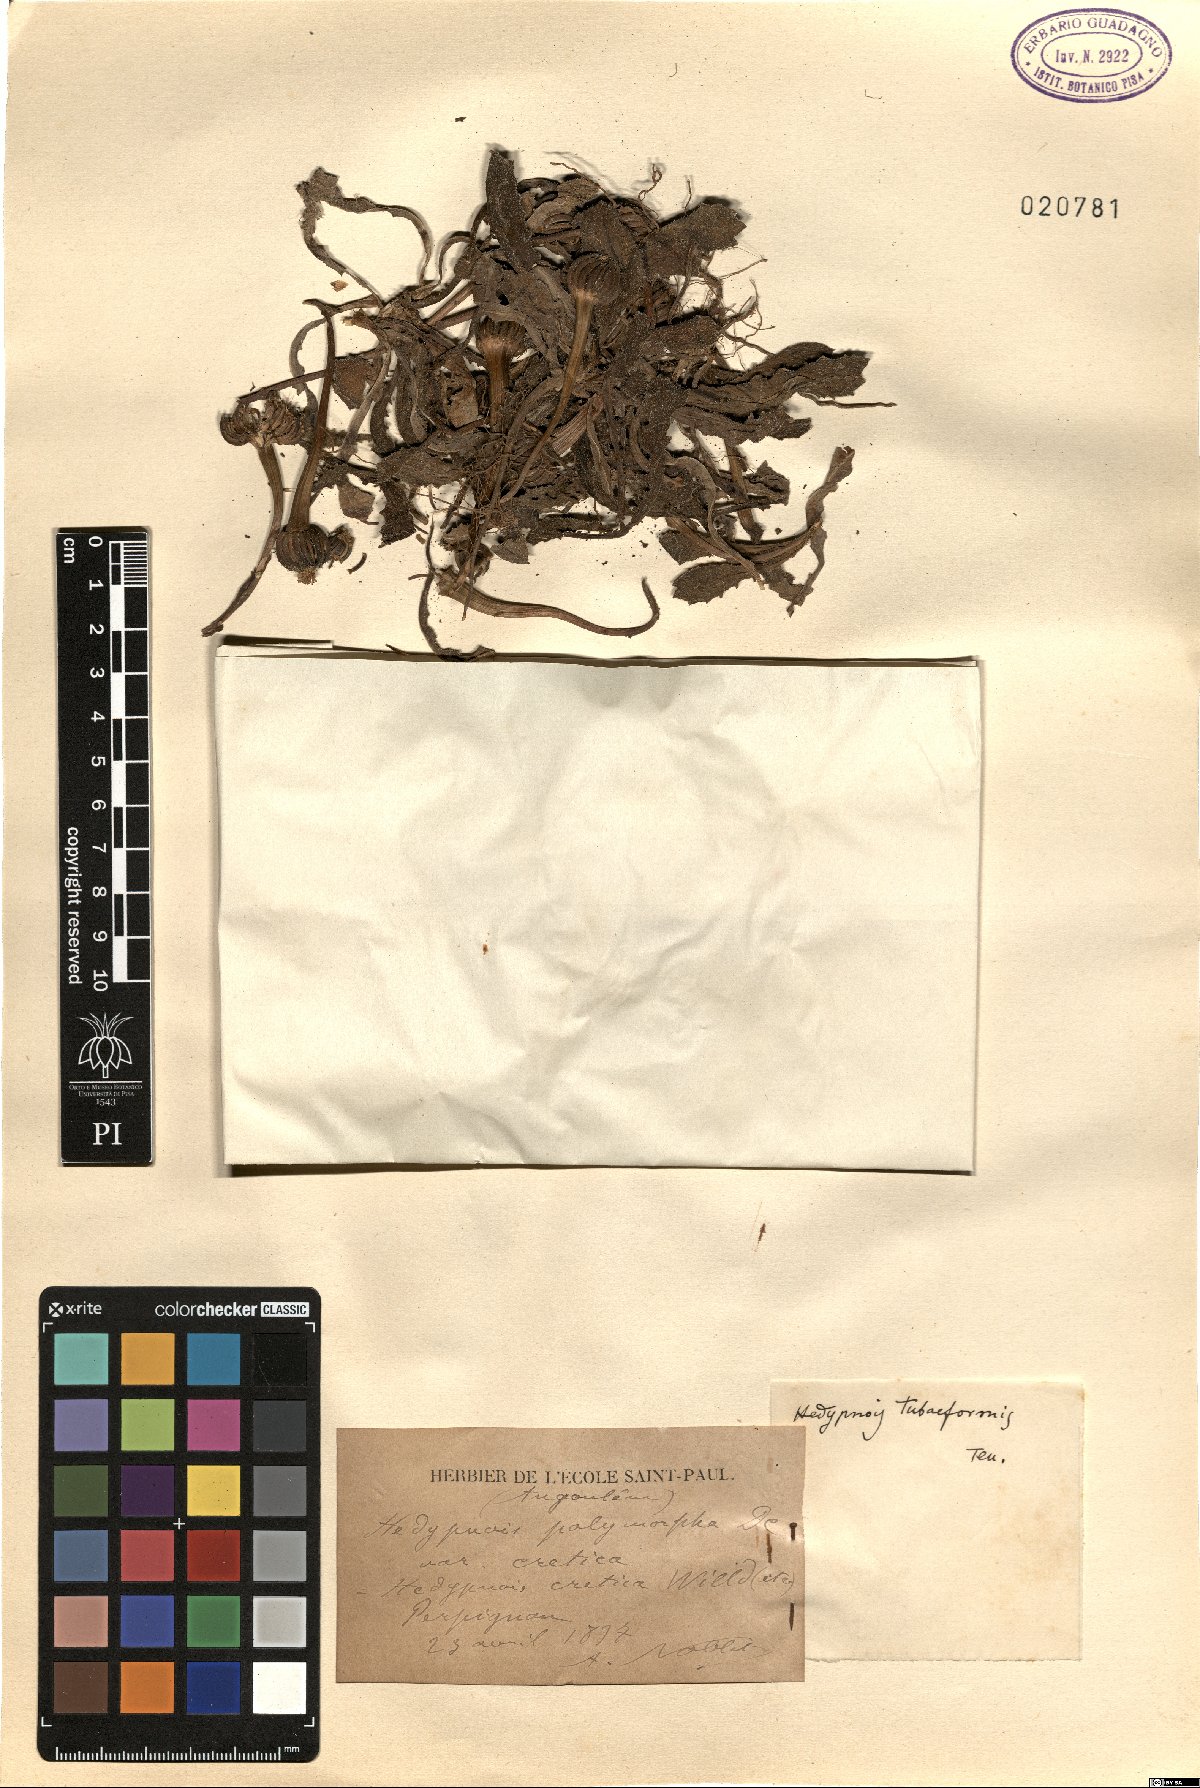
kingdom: Plantae
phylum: Tracheophyta
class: Magnoliopsida
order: Asterales
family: Asteraceae
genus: Hedypnois
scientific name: Hedypnois rhagadioloides
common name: Cretan weed
